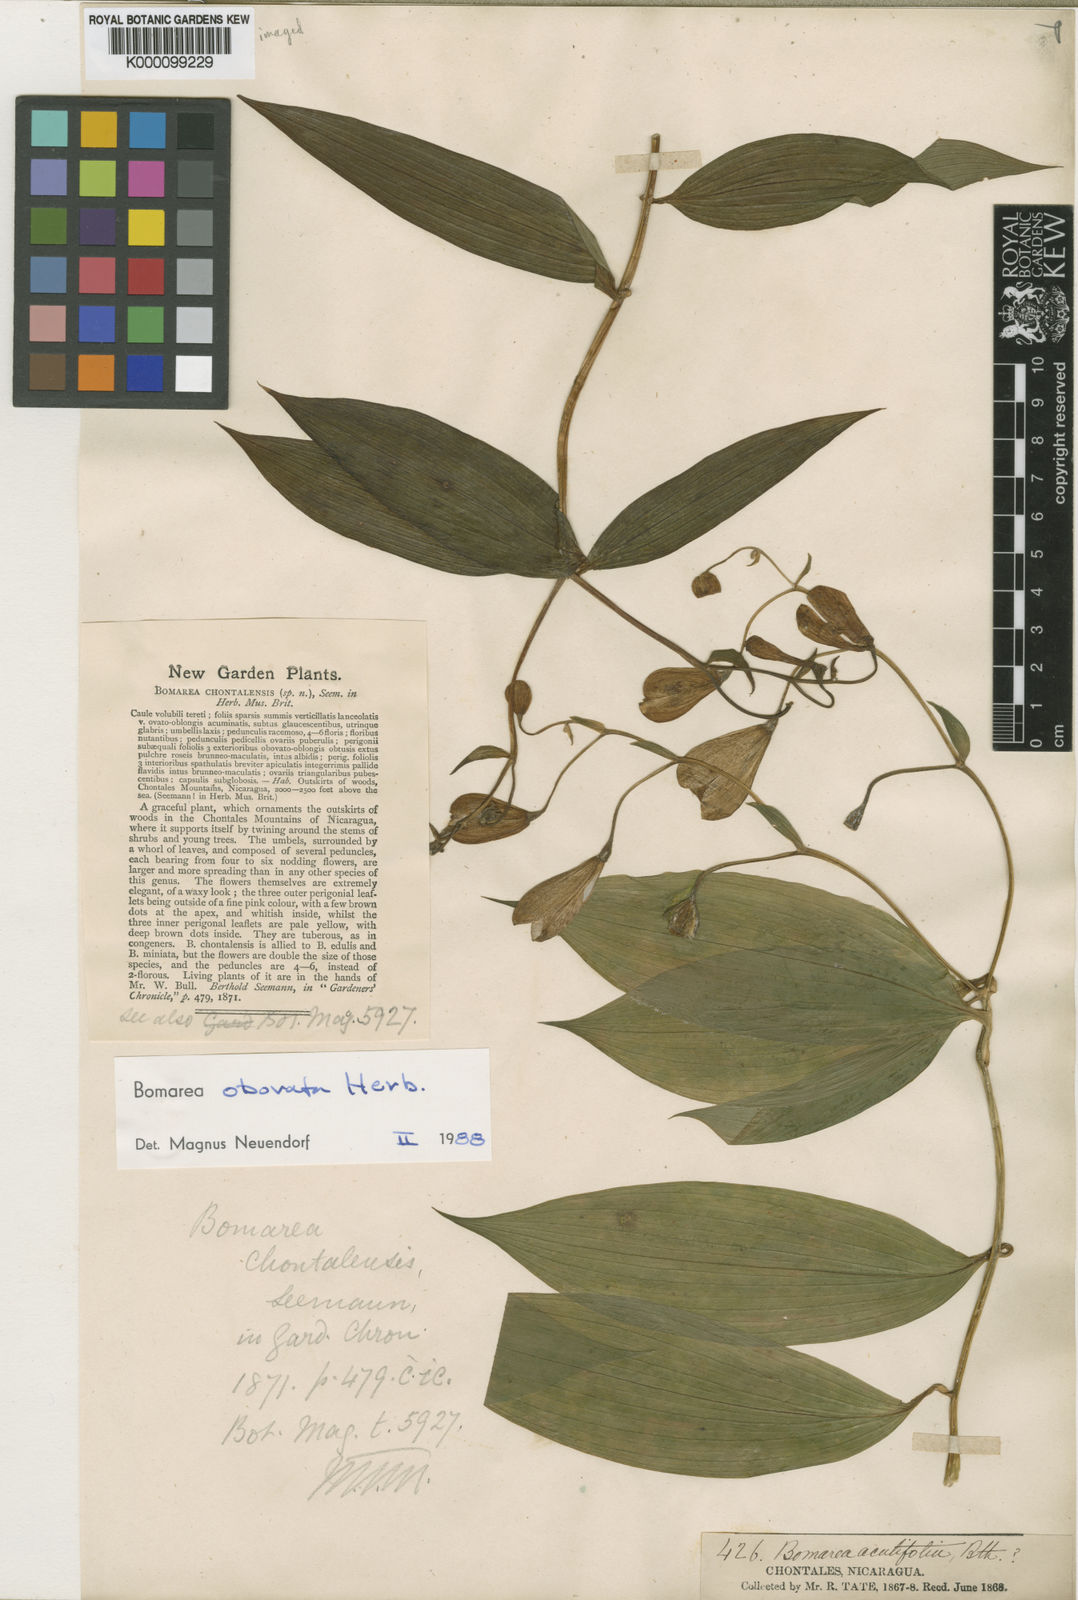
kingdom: Plantae
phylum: Tracheophyta
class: Liliopsida
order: Liliales
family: Alstroemeriaceae
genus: Bomarea
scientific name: Bomarea edulis
